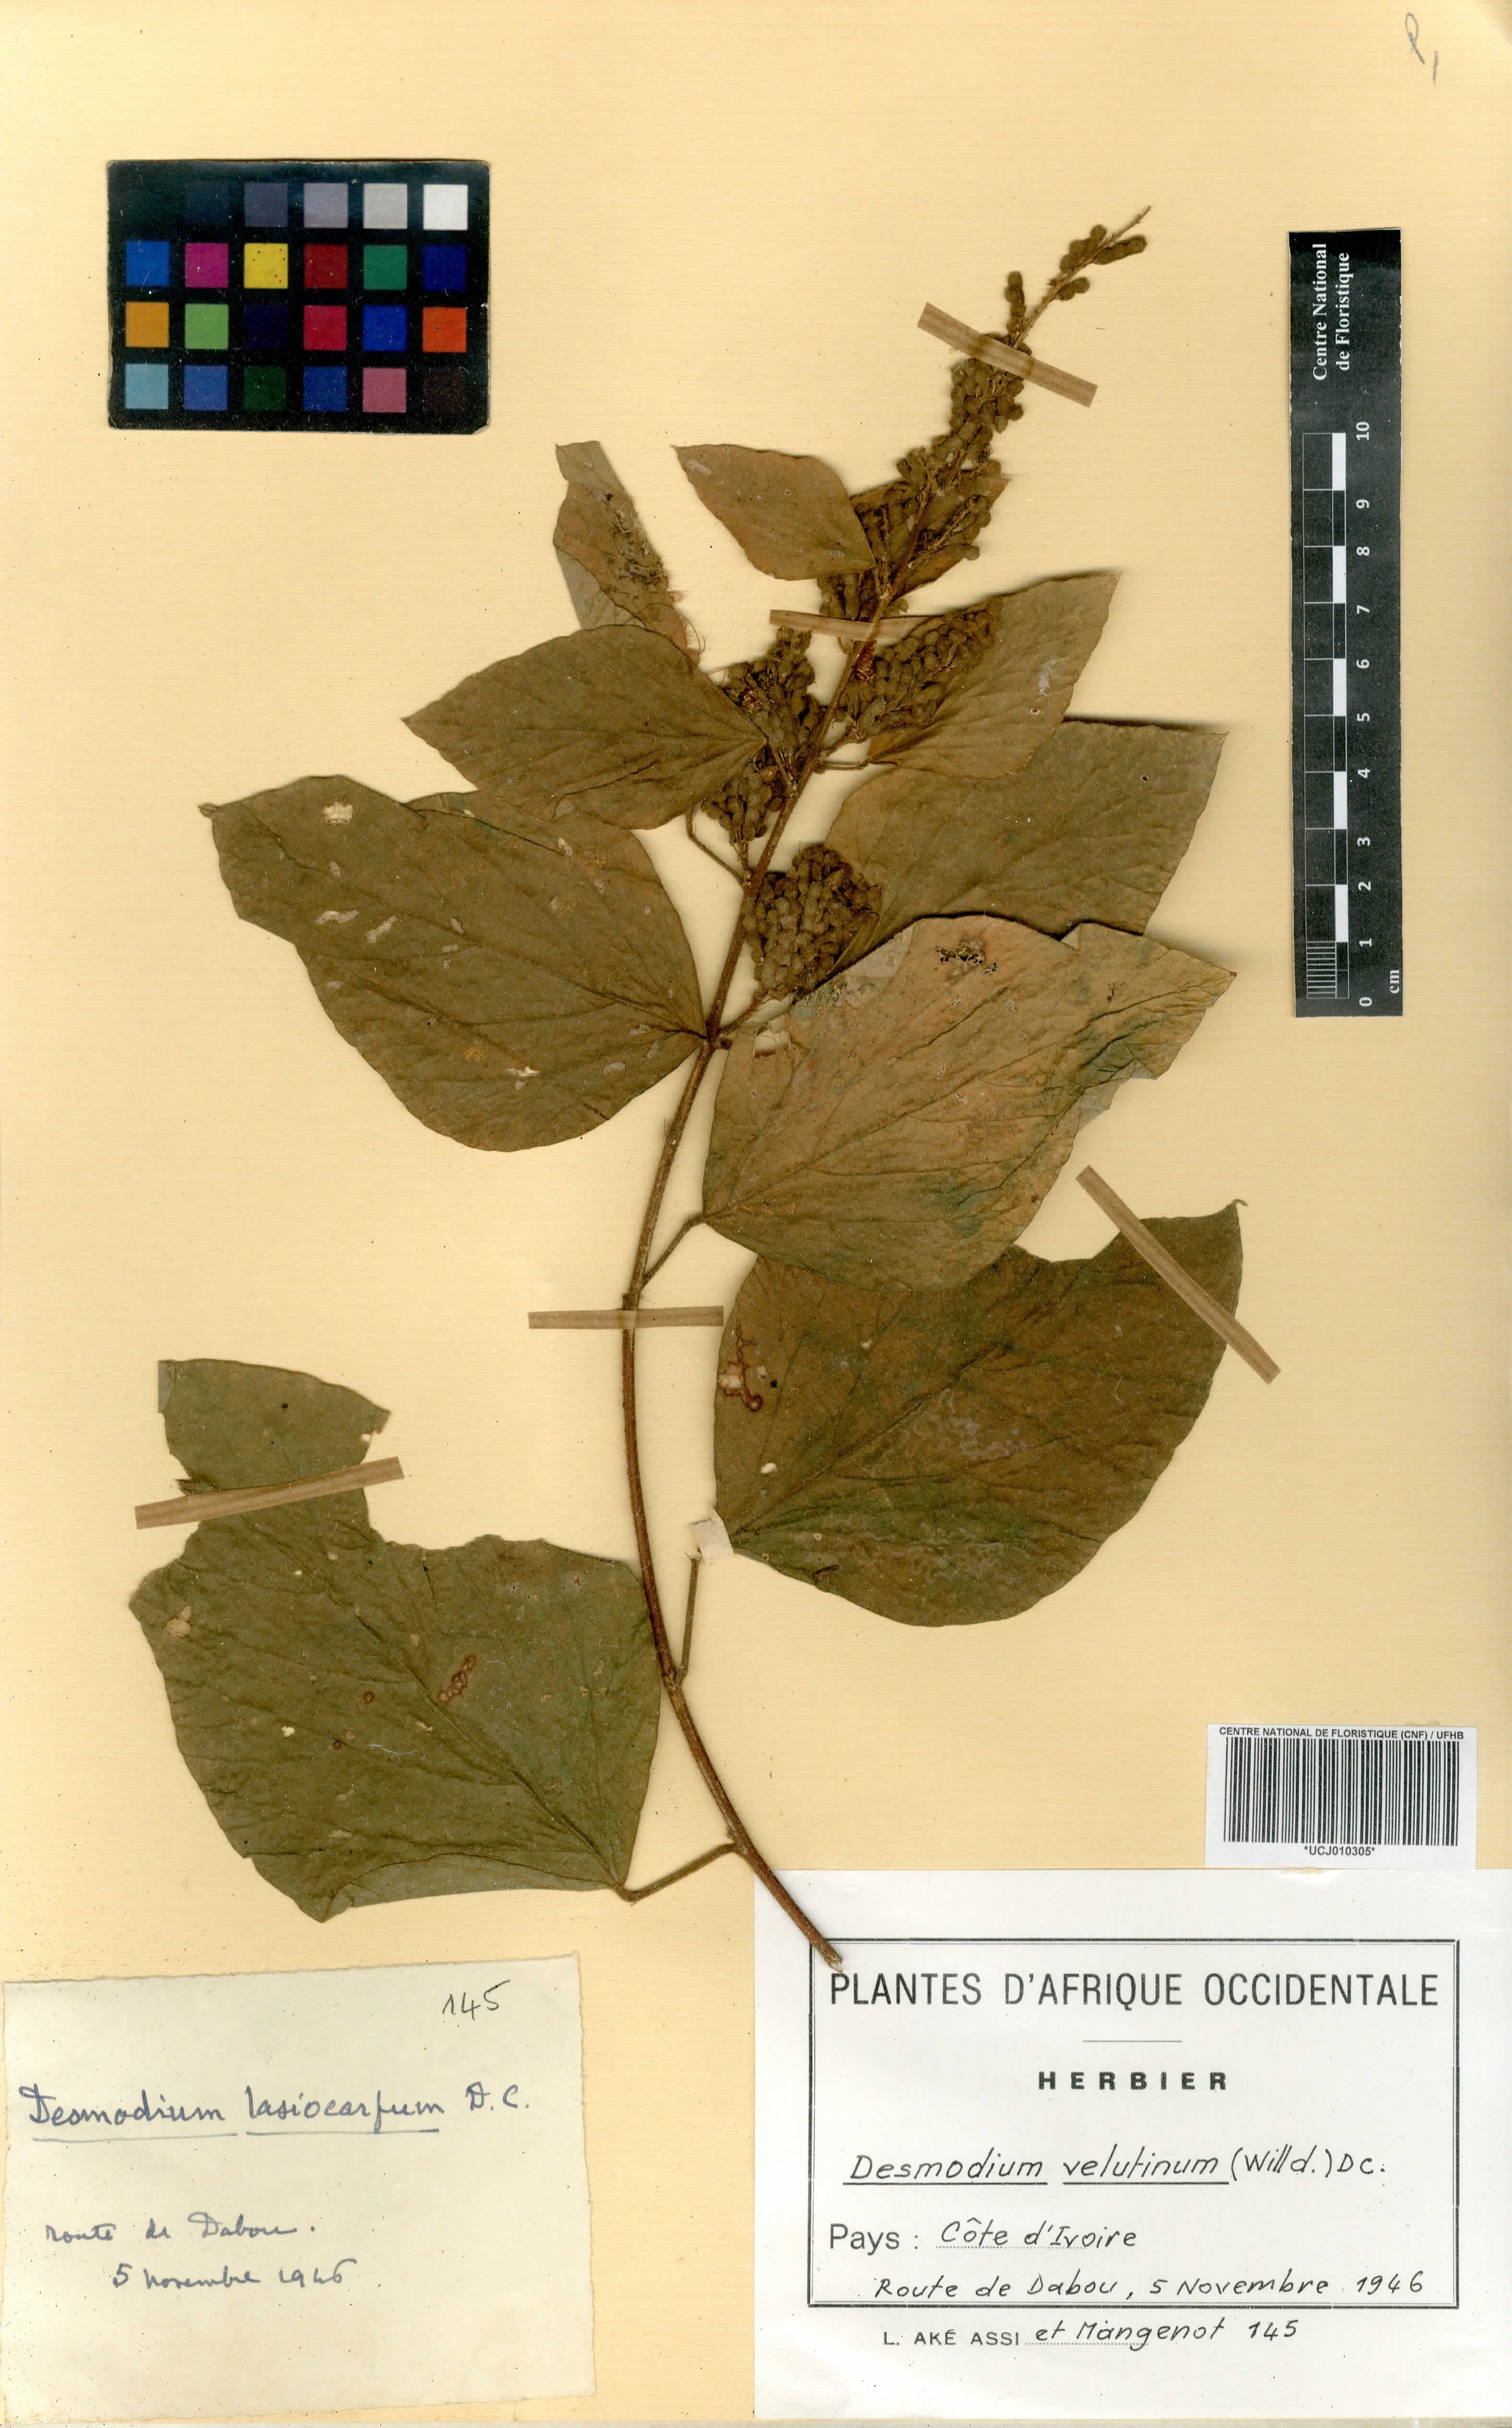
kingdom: Plantae
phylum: Tracheophyta
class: Magnoliopsida
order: Fabales
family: Fabaceae
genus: Polhillides
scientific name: Polhillides velutina
